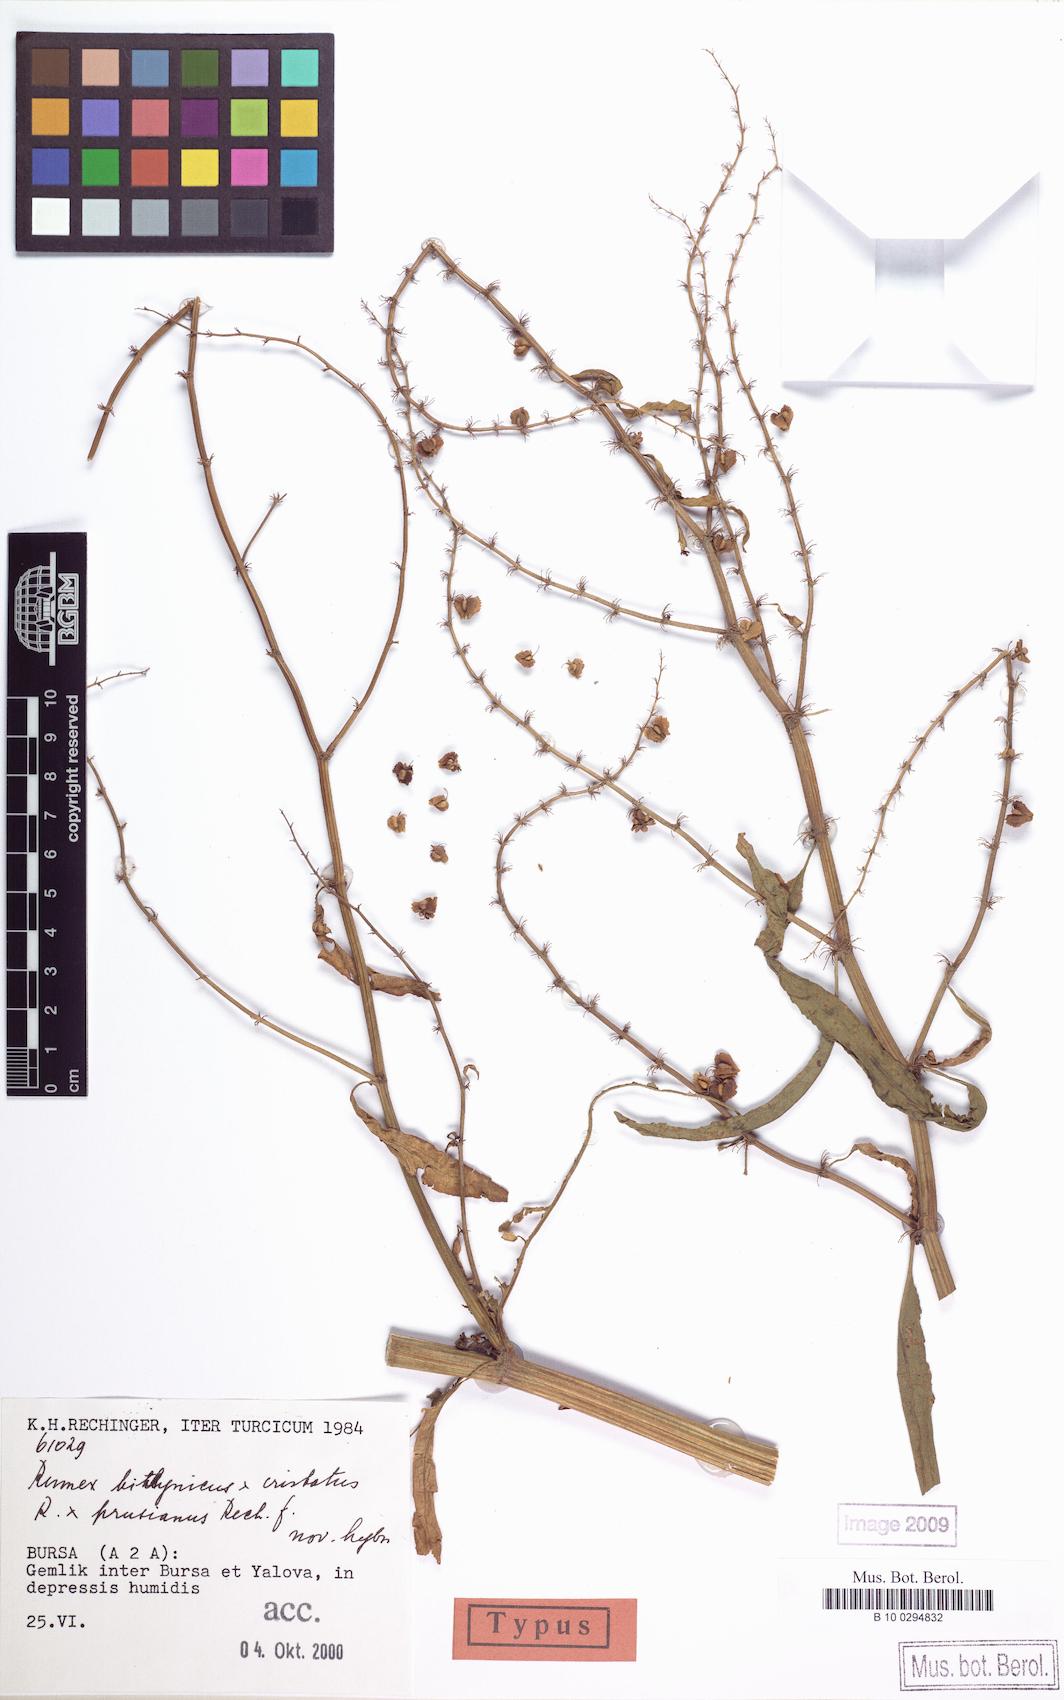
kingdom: Plantae
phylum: Tracheophyta
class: Magnoliopsida
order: Caryophyllales
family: Polygonaceae
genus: Rumex
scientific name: Rumex bithynicus
